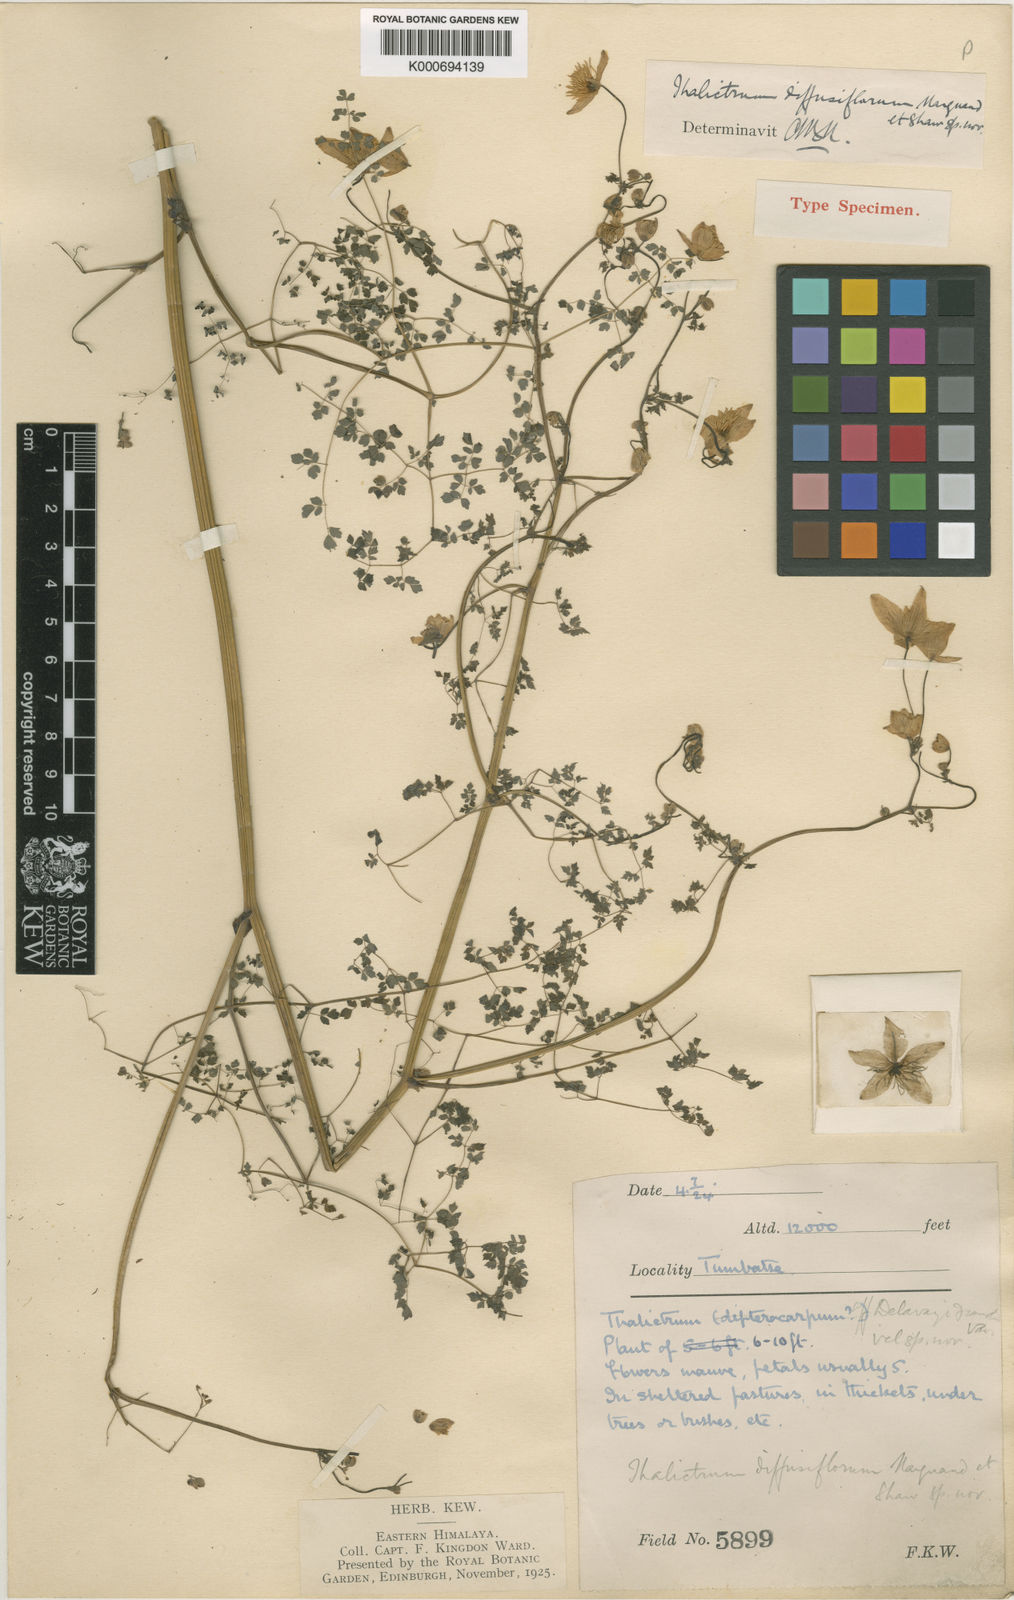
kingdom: Plantae
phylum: Tracheophyta
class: Magnoliopsida
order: Ranunculales
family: Ranunculaceae
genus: Thalictrum
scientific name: Thalictrum diffusiflorum
